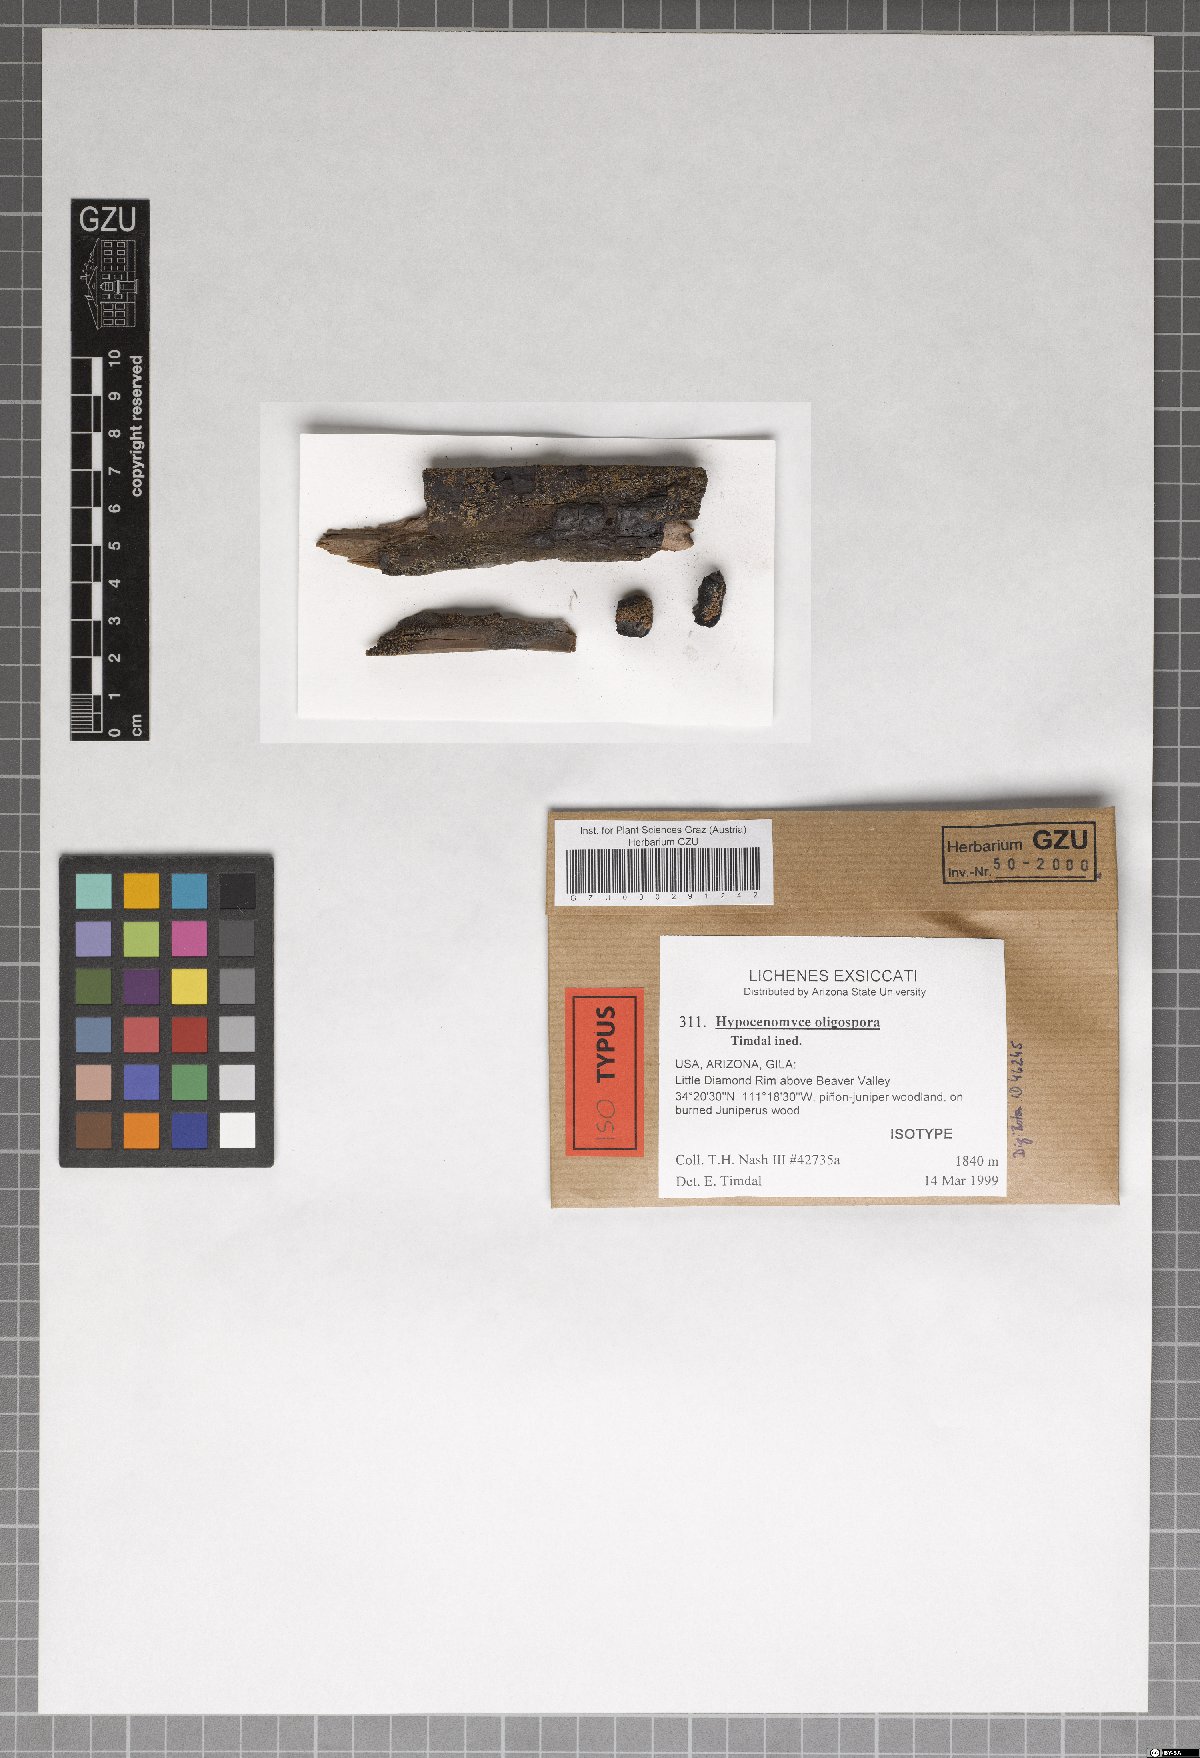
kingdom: Fungi
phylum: Ascomycota
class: Lecanoromycetes
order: Umbilicariales
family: Umbilicariaceae
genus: Fulgidea
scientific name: Fulgidea oligospora
